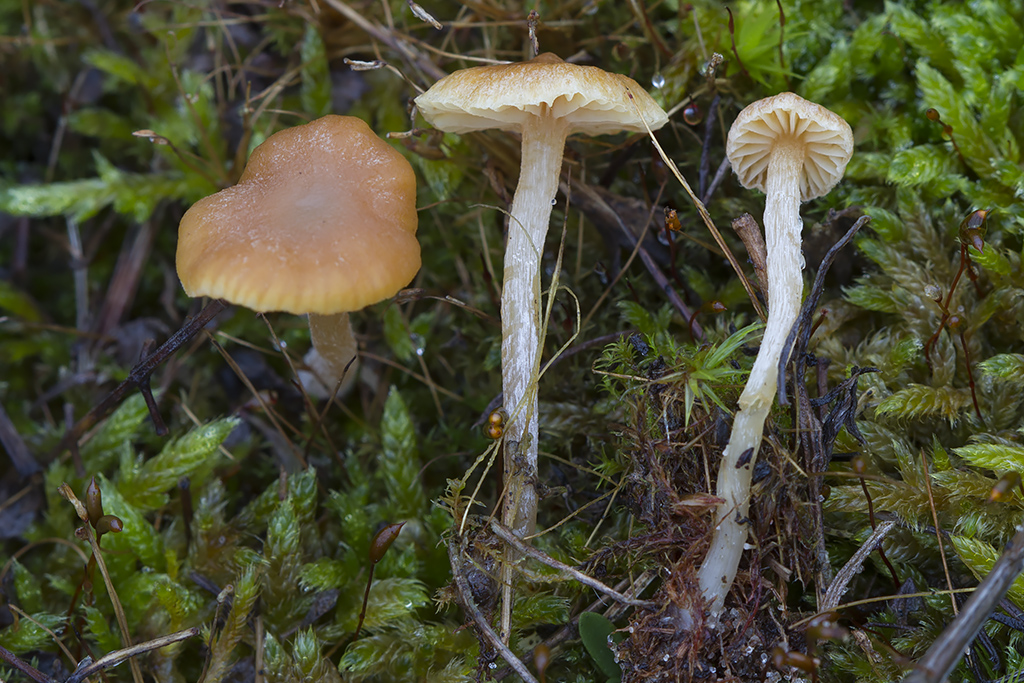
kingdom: Fungi
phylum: Basidiomycota
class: Agaricomycetes
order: Agaricales
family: Hymenogastraceae
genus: Galerina
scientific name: Galerina graminea
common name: plæne-hjelmhat
